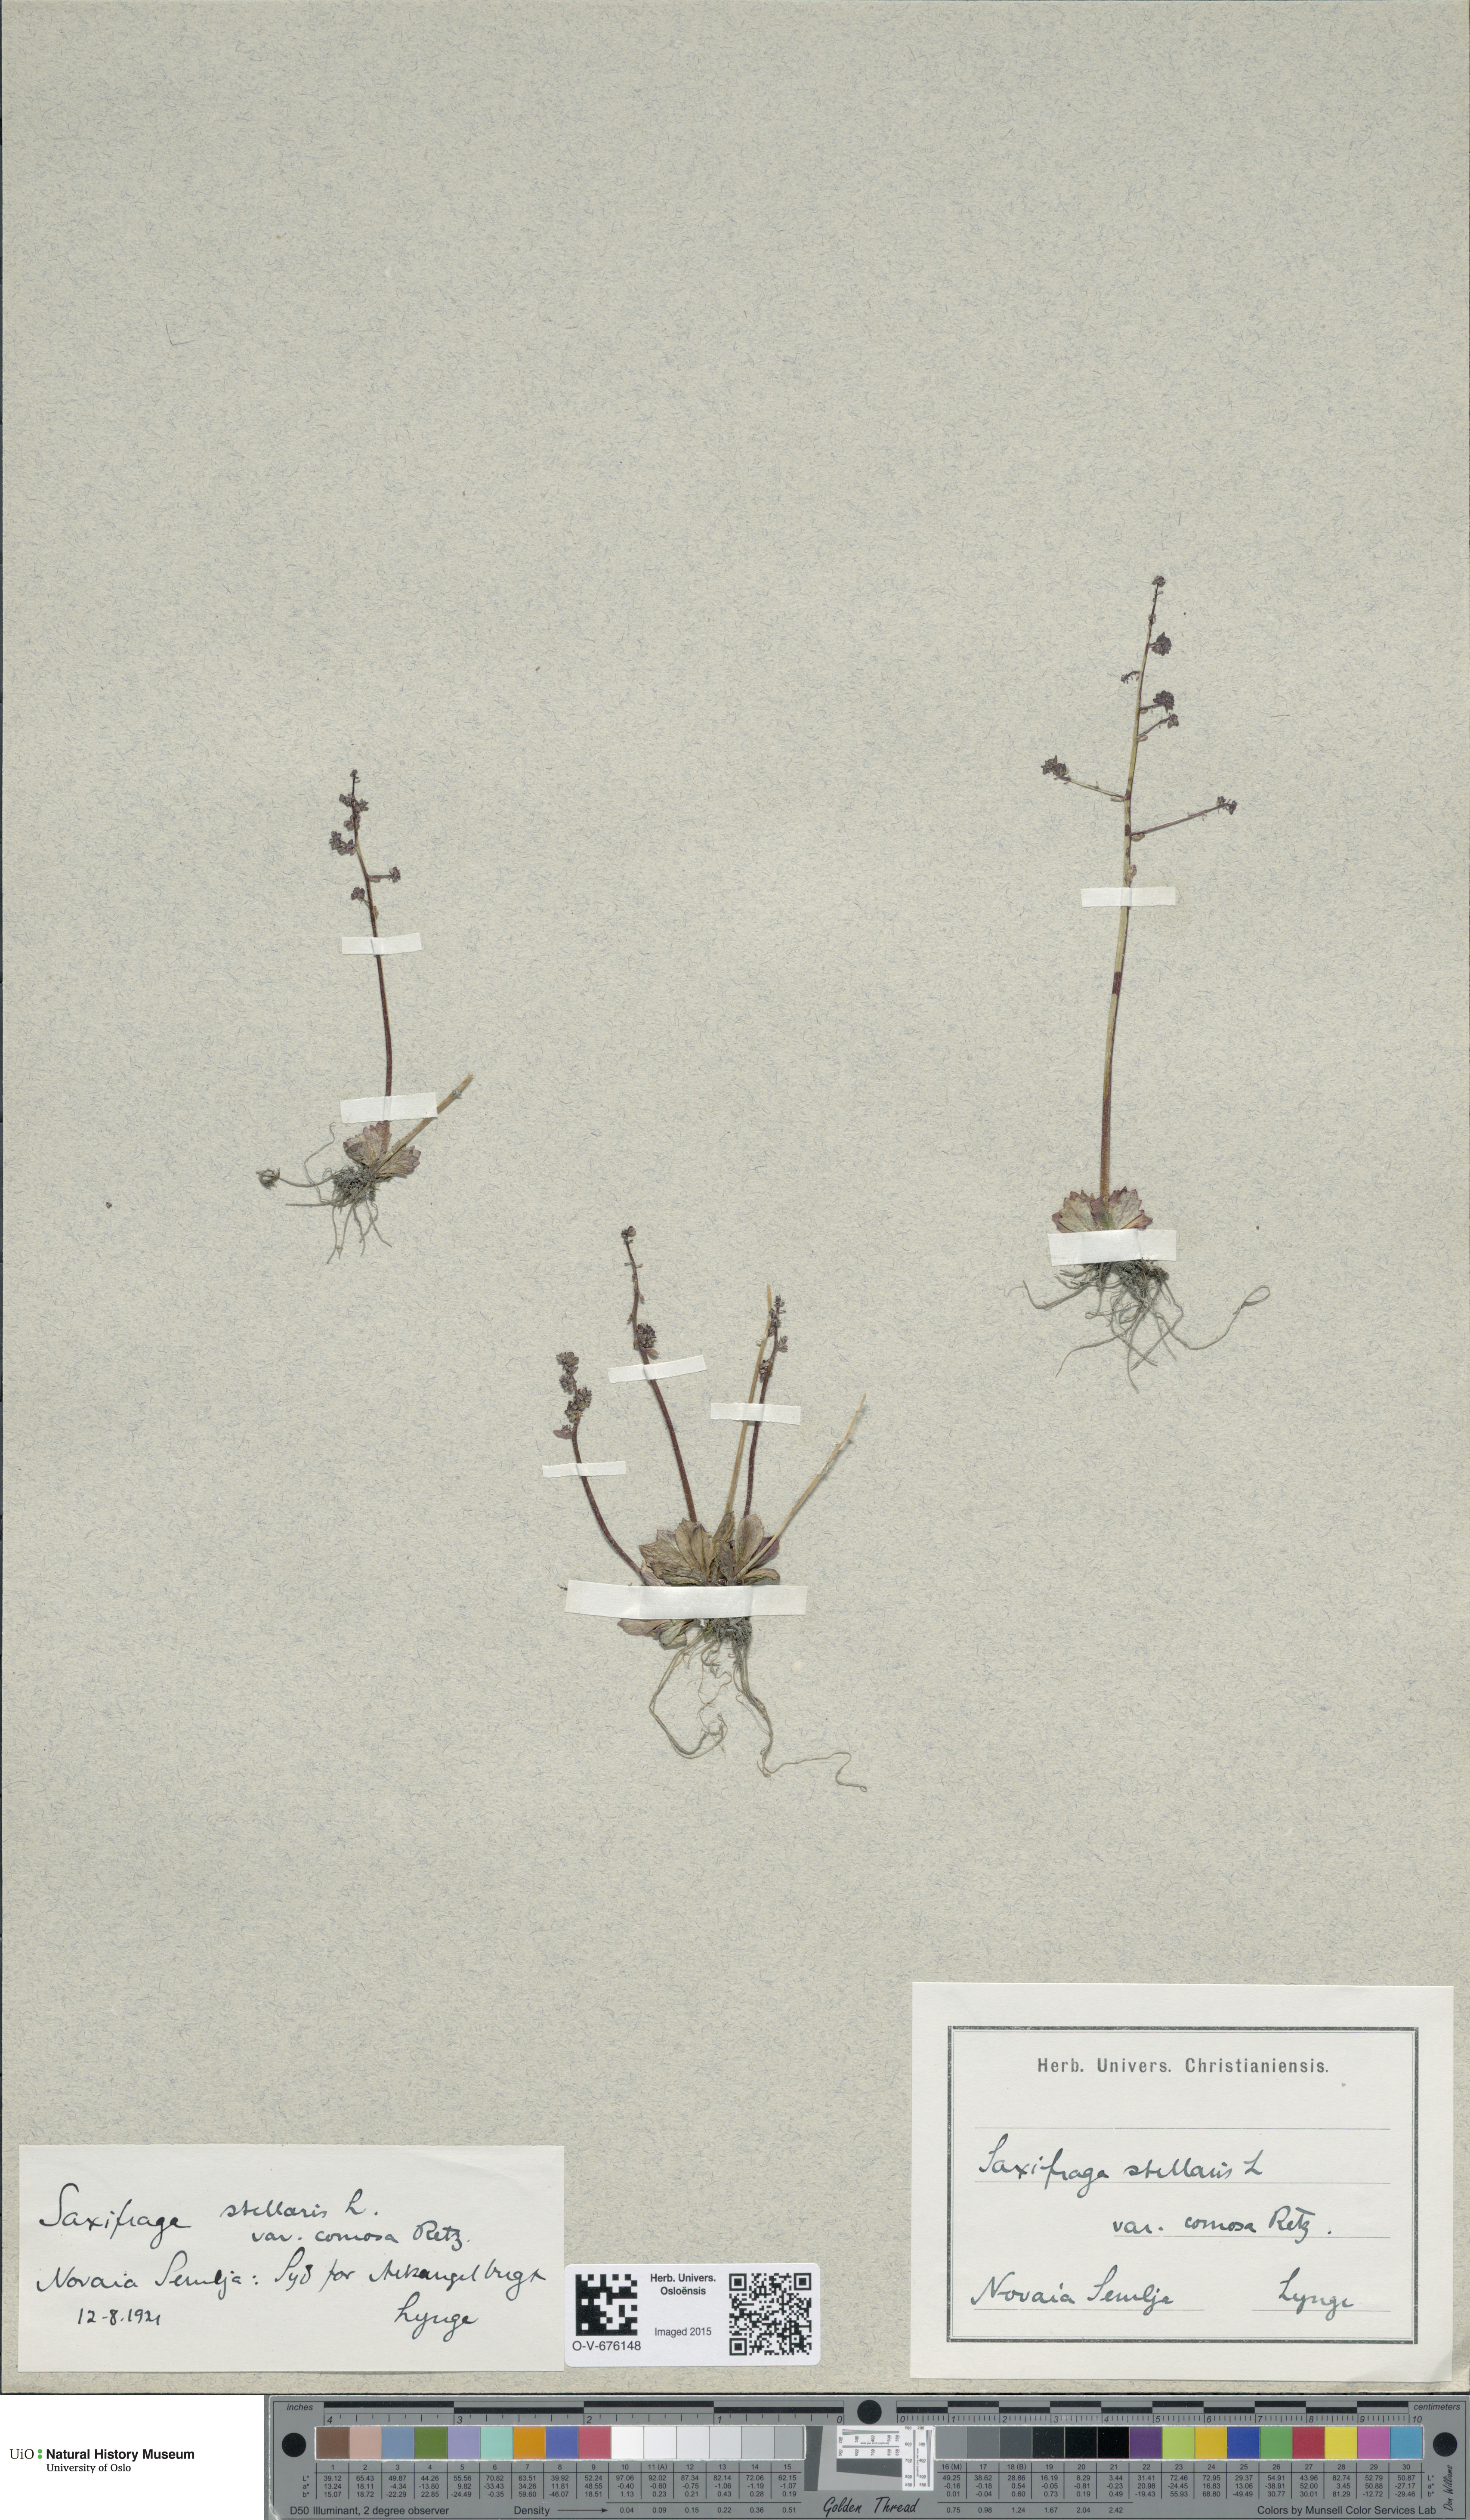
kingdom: Plantae
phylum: Tracheophyta
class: Magnoliopsida
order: Saxifragales
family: Saxifragaceae
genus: Micranthes
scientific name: Micranthes foliolosa
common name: Leafystem saxifrage
